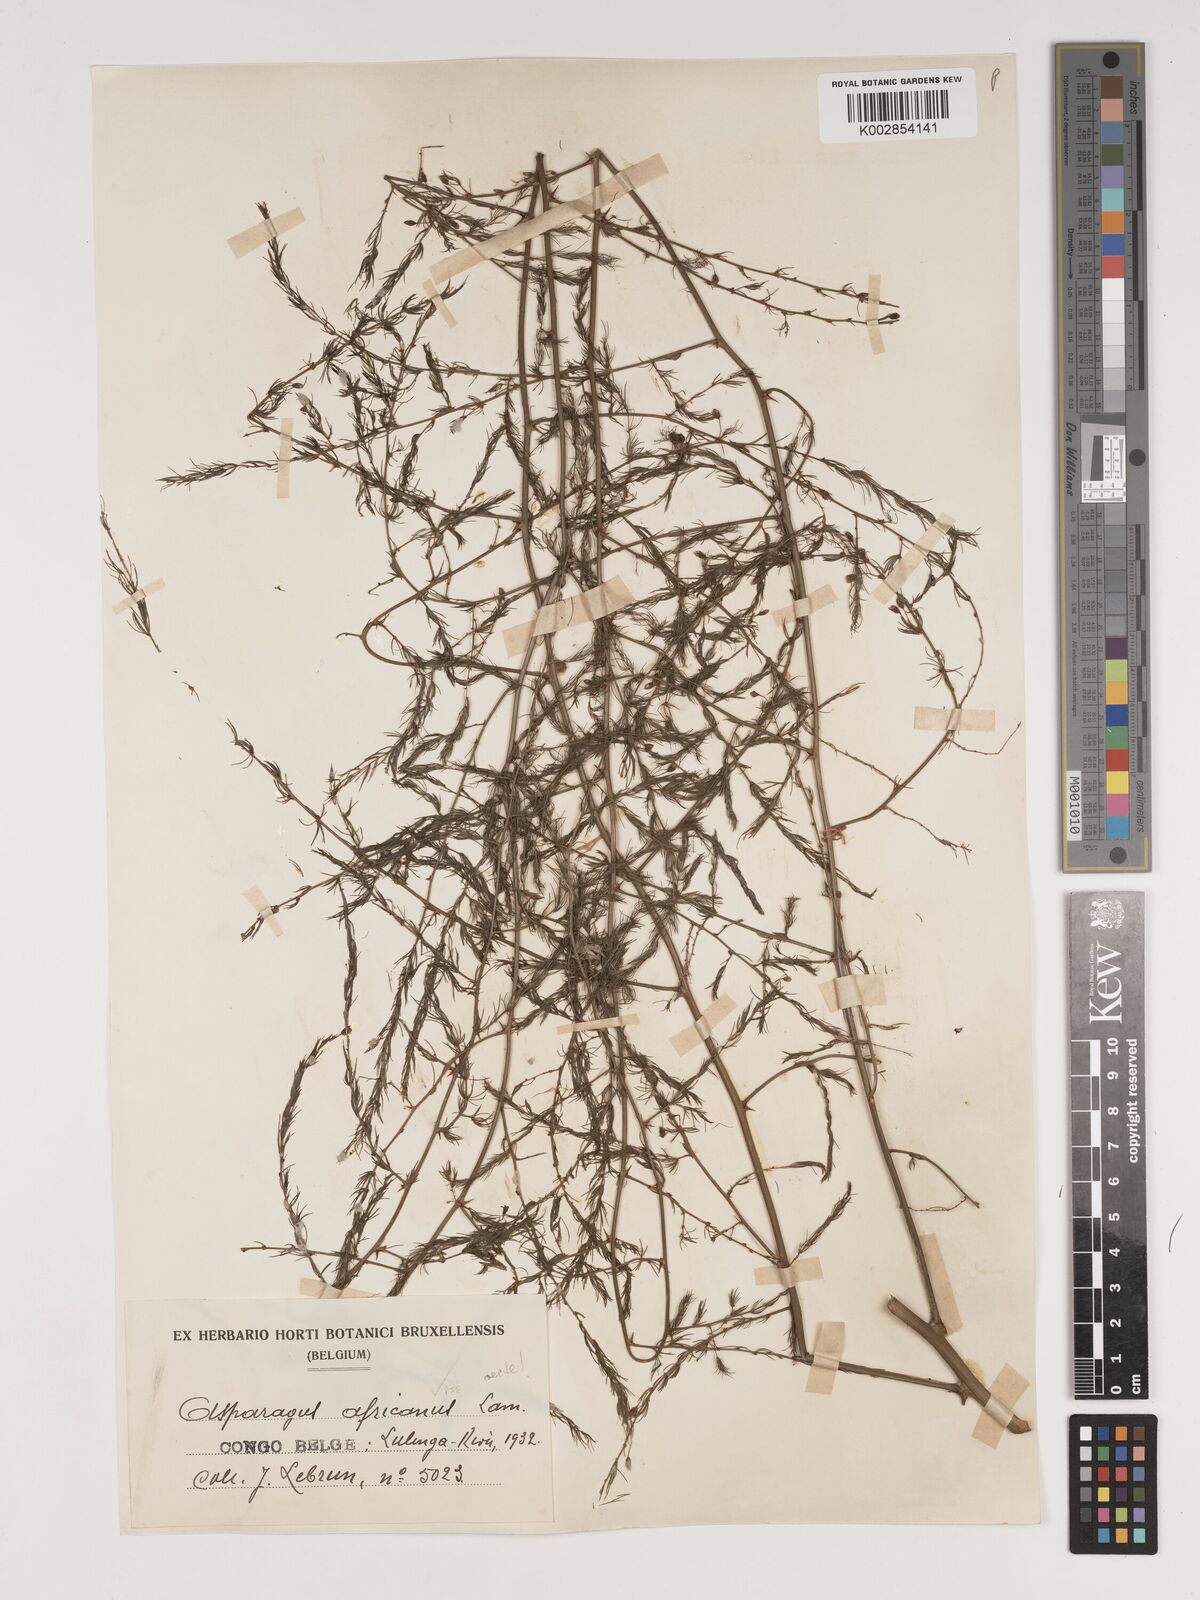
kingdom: Plantae
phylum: Tracheophyta
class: Liliopsida
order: Asparagales
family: Asparagaceae
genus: Asparagus
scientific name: Asparagus africanus
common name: Asparagus-fern
